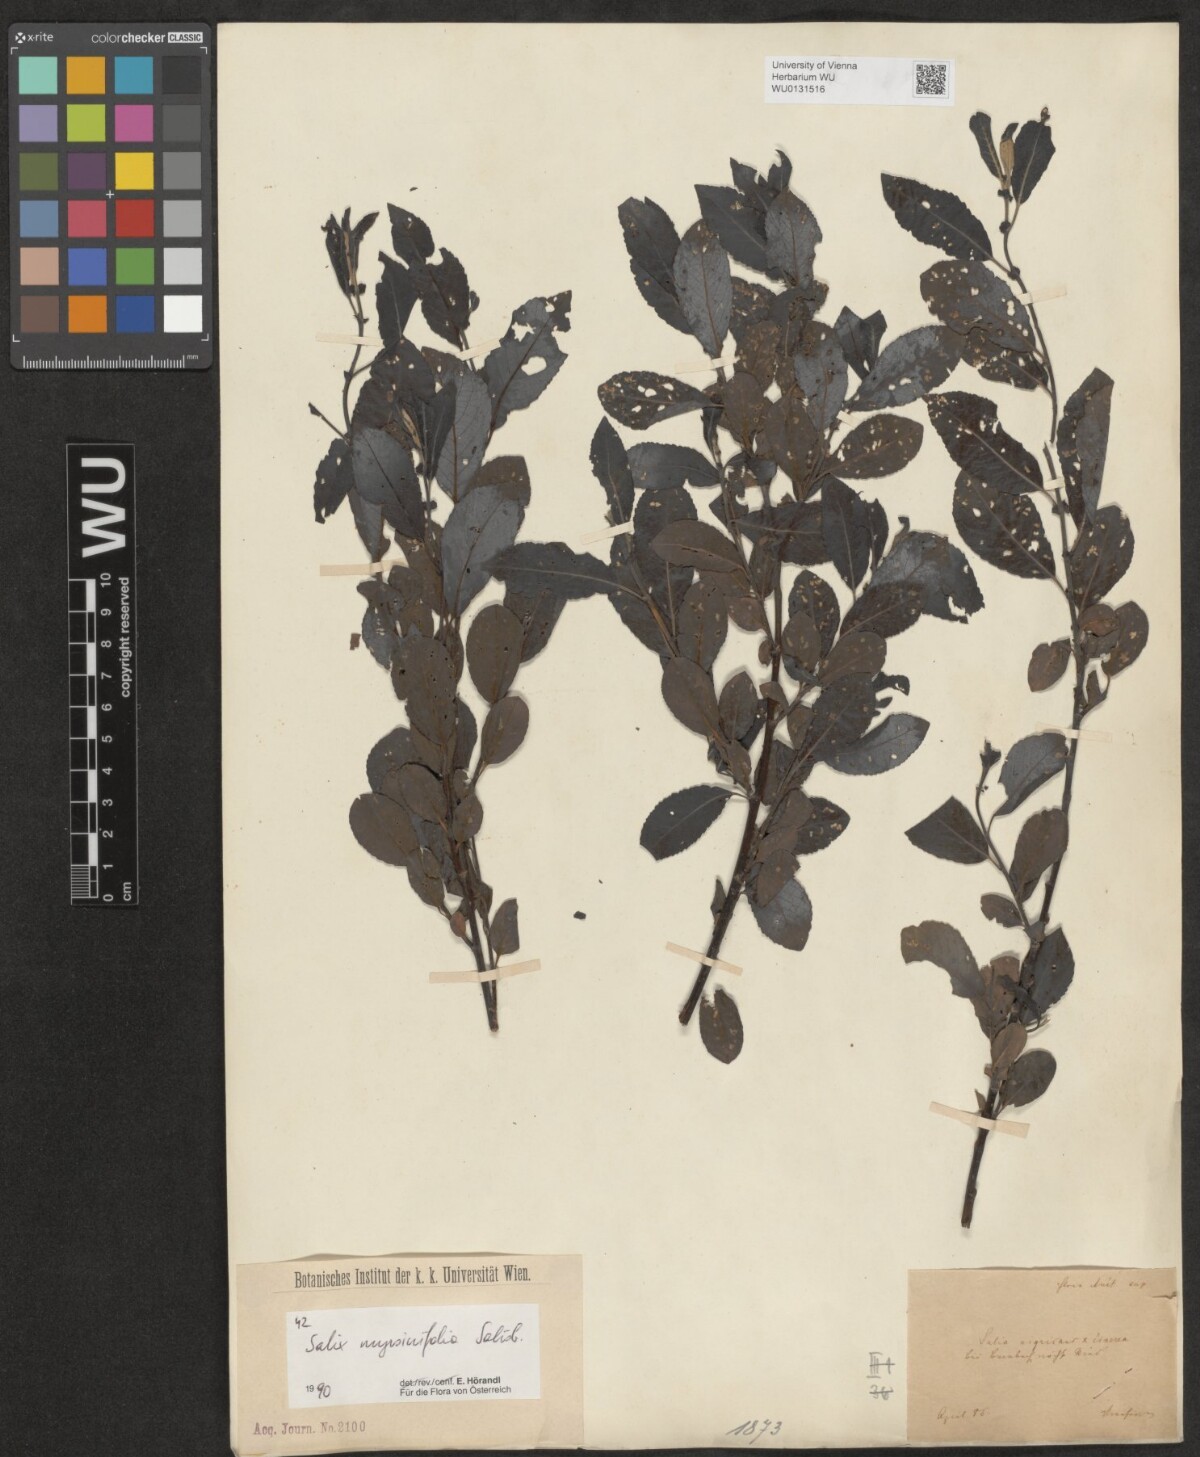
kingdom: Plantae
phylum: Tracheophyta
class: Magnoliopsida
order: Malpighiales
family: Salicaceae
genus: Salix
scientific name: Salix myrsinifolia
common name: Dark-leaved willow
